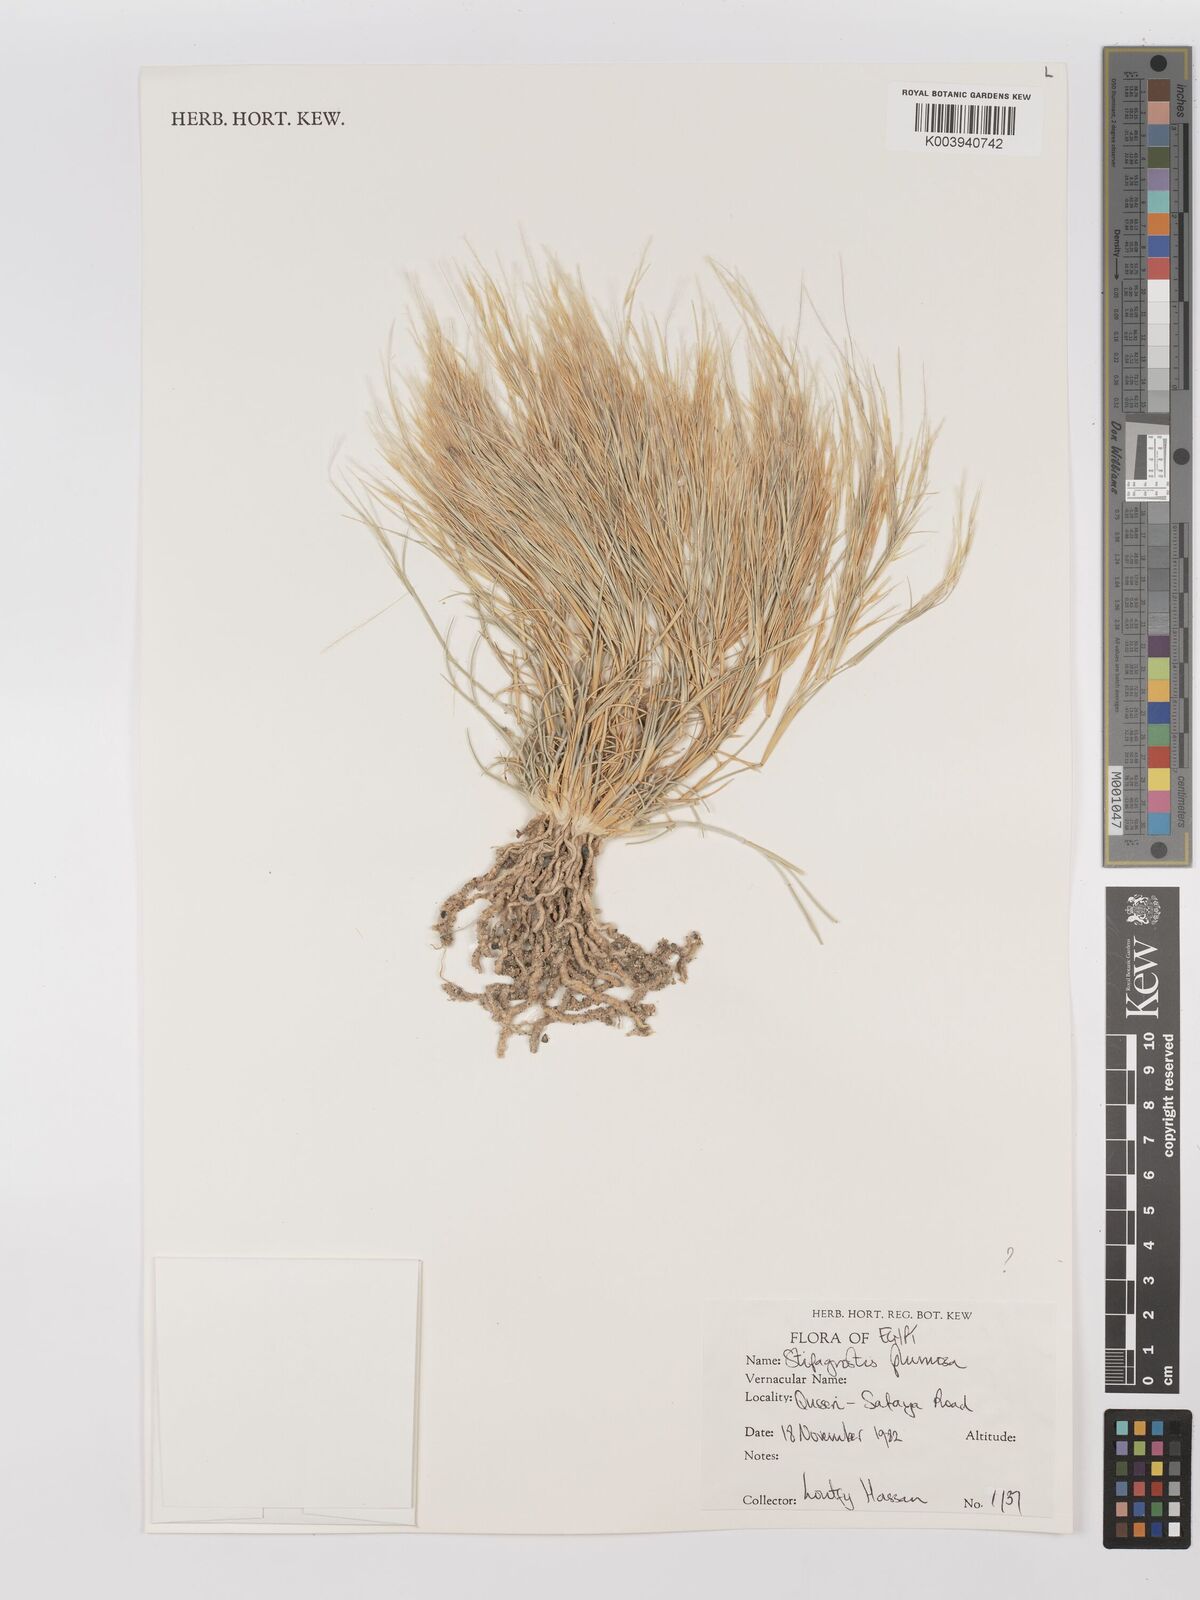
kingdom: Plantae
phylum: Tracheophyta
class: Liliopsida
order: Poales
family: Poaceae
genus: Stipagrostis
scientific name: Stipagrostis plumosa
